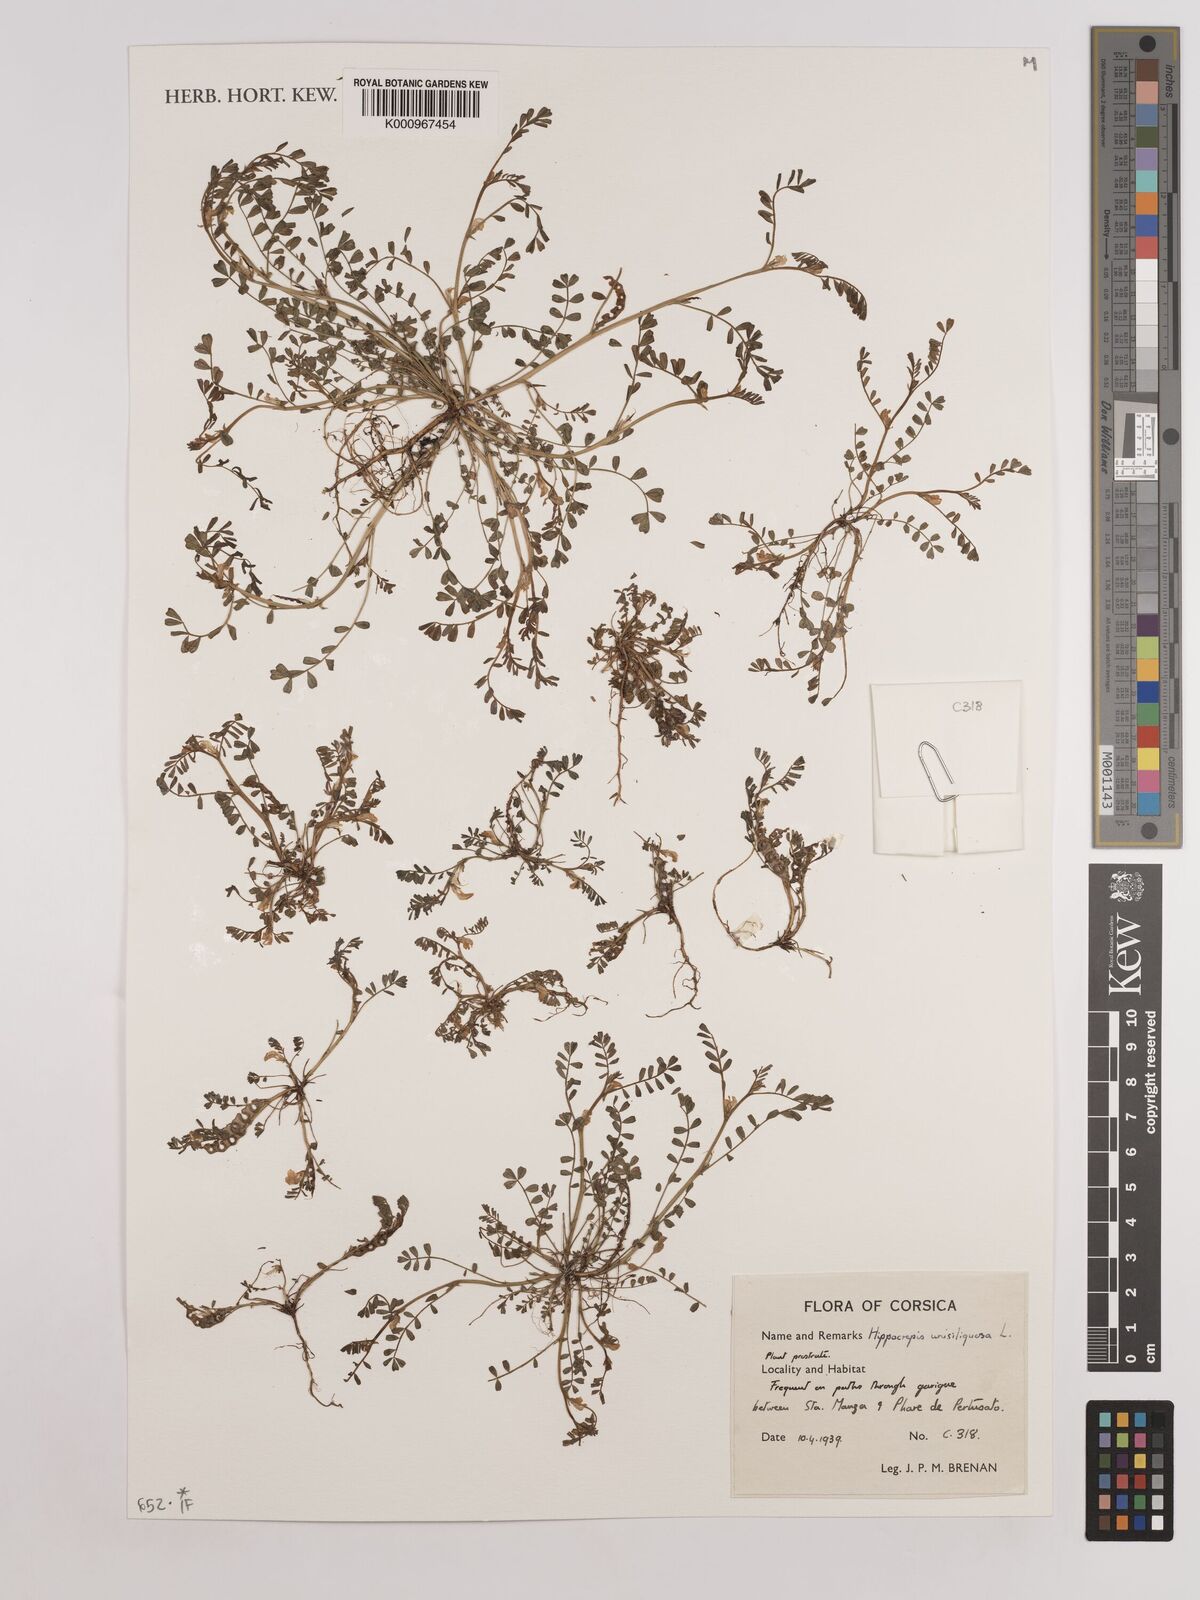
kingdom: Plantae
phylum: Tracheophyta
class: Magnoliopsida
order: Fabales
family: Fabaceae
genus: Hippocrepis
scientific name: Hippocrepis unisiliquosa
